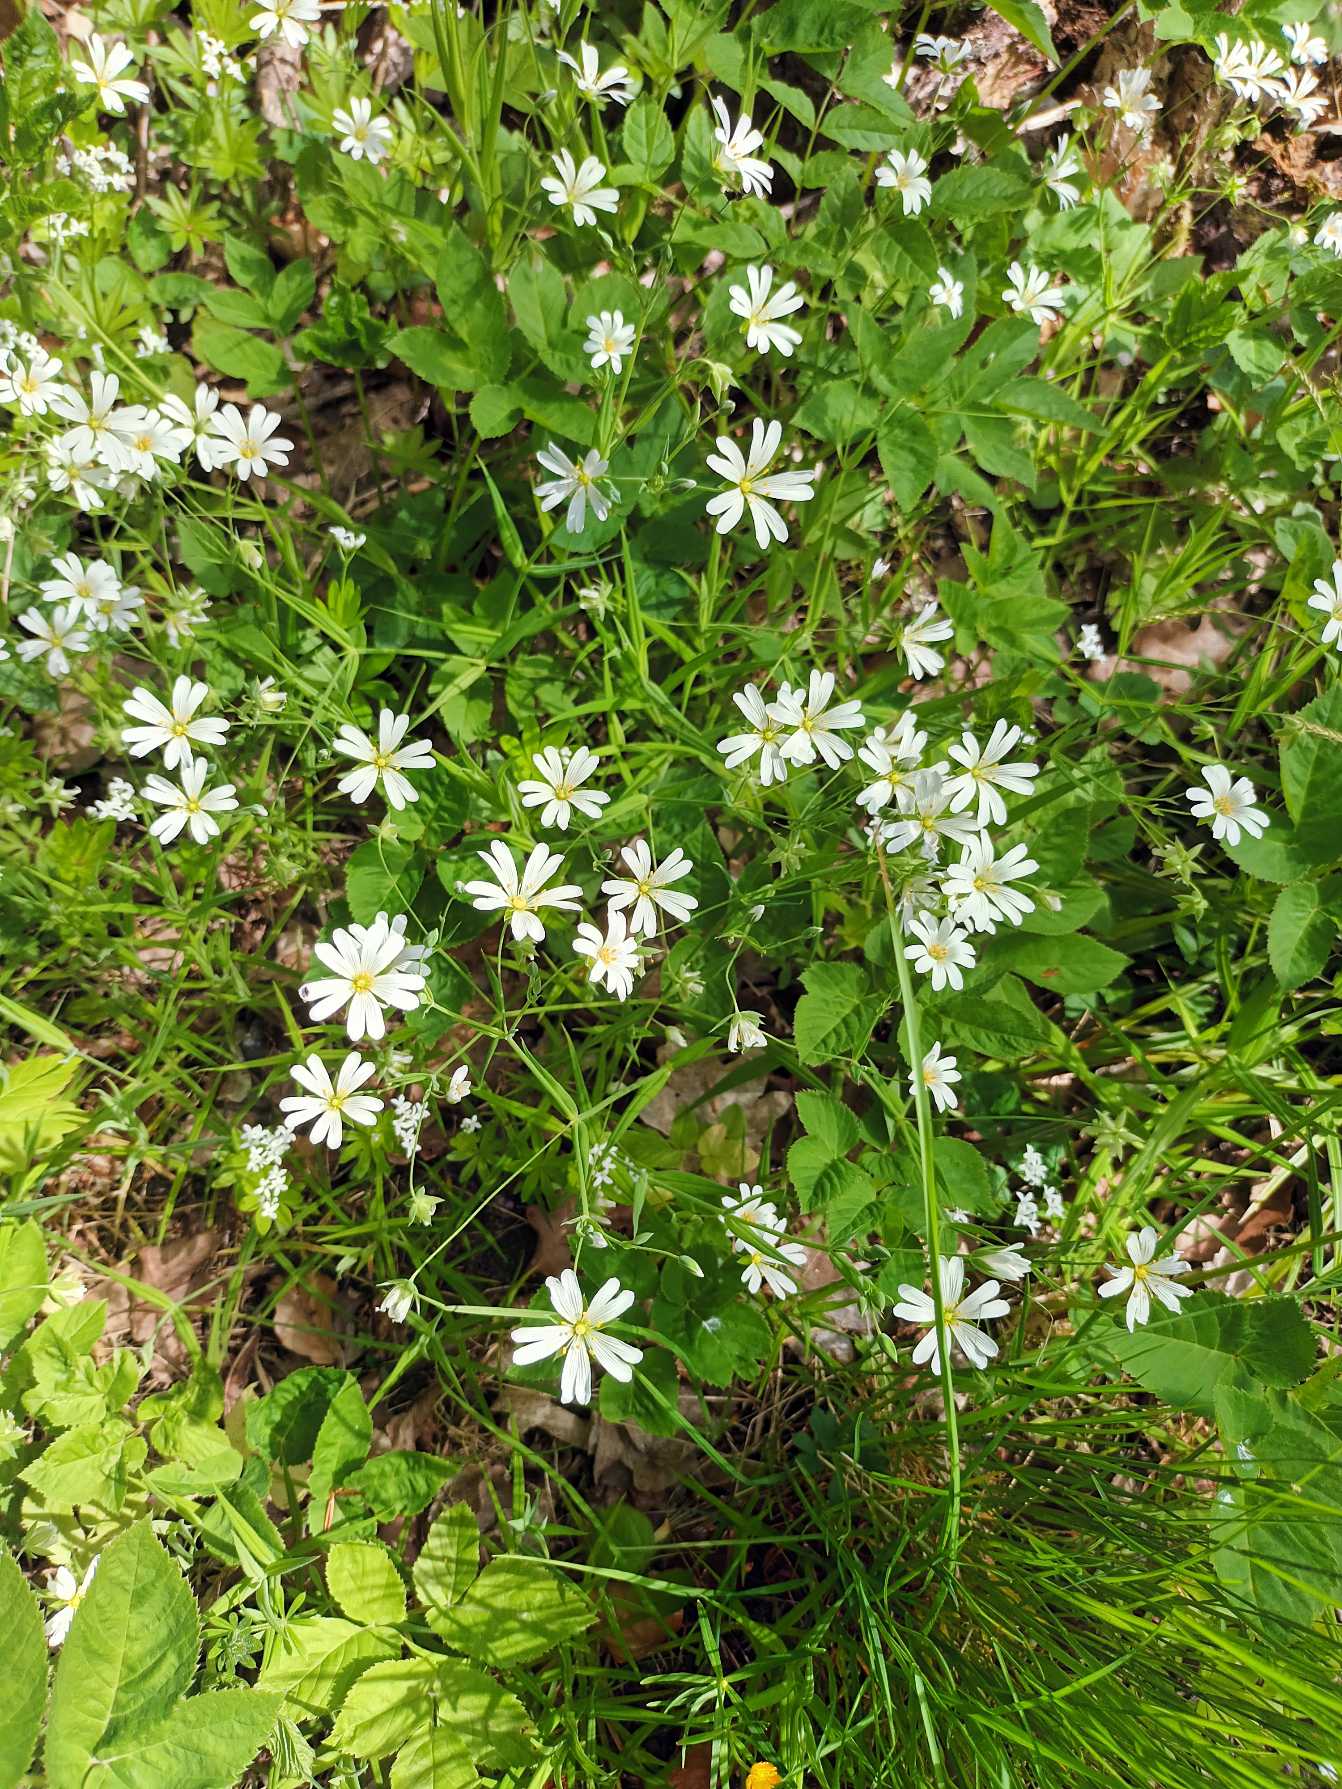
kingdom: Plantae
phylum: Tracheophyta
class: Magnoliopsida
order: Caryophyllales
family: Caryophyllaceae
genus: Rabelera
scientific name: Rabelera holostea
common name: Stor fladstjerne
